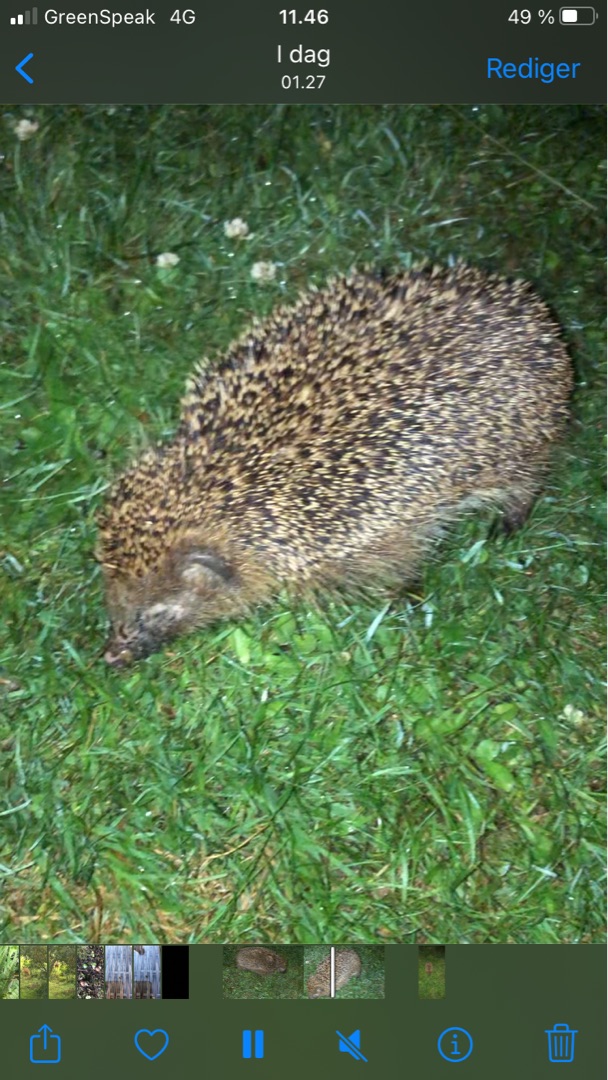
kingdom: Animalia
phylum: Chordata
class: Mammalia
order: Erinaceomorpha
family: Erinaceidae
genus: Erinaceus
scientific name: Erinaceus europaeus
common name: Pindsvin
